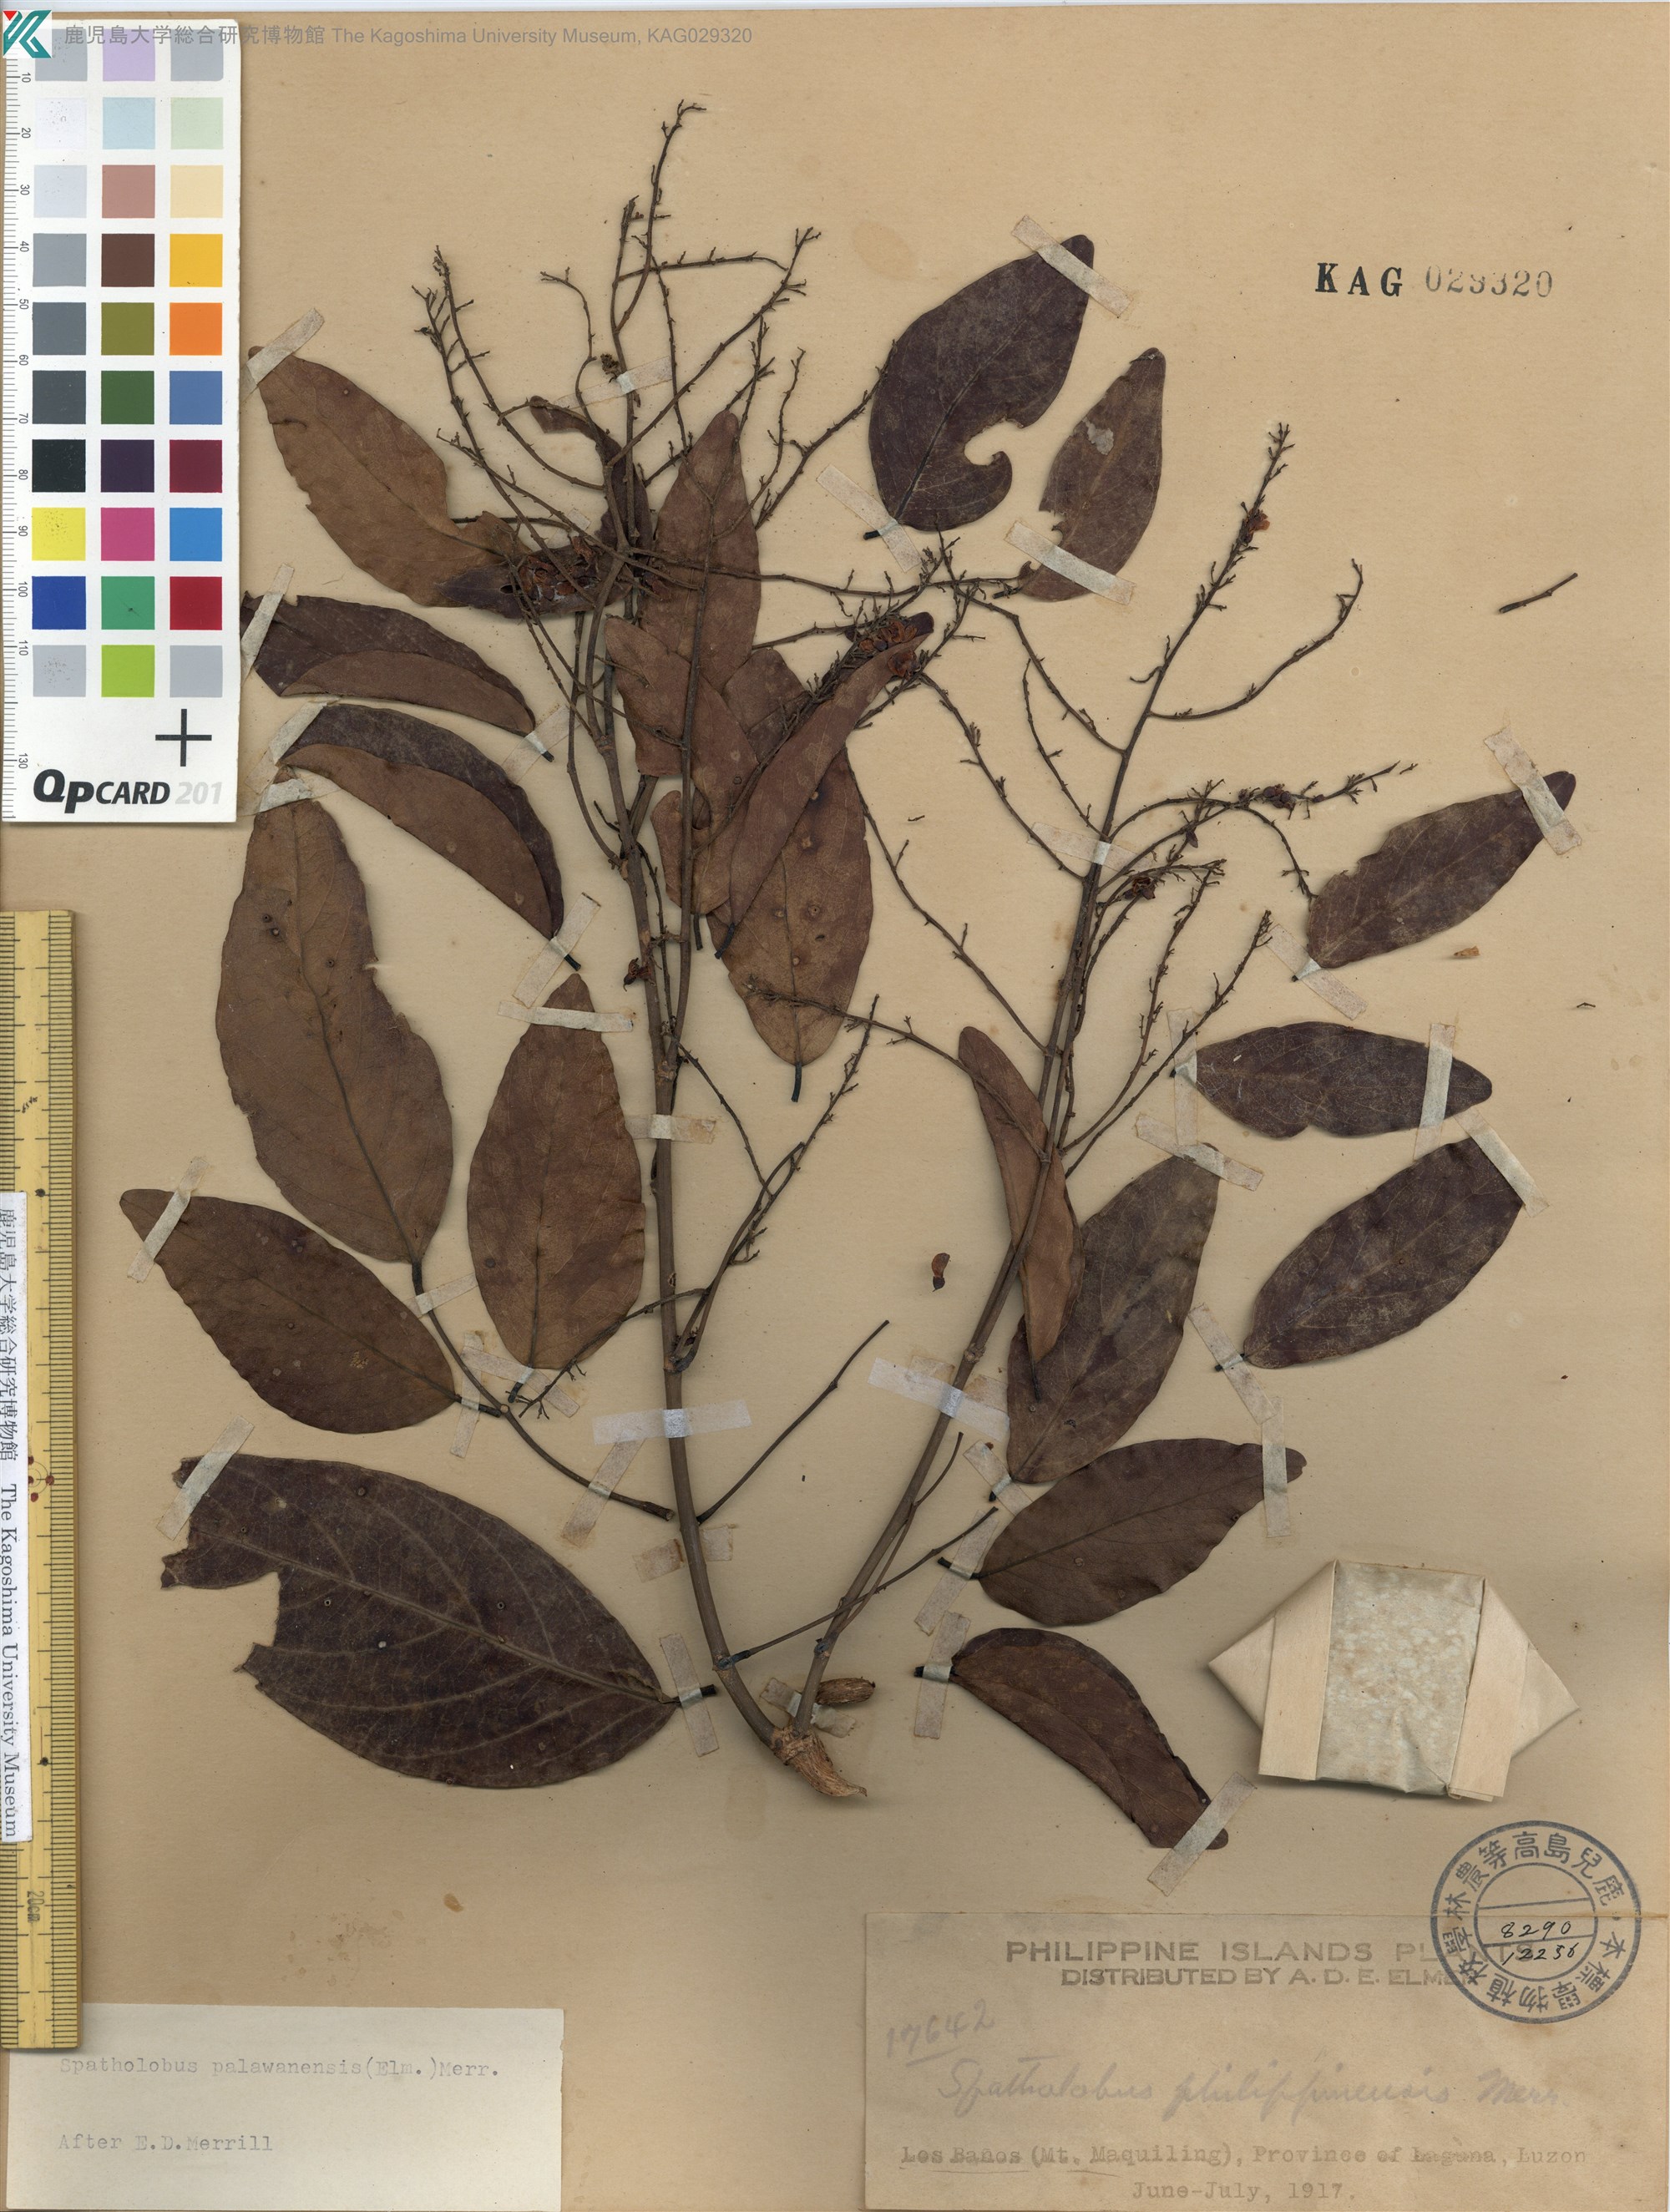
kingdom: Plantae
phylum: Tracheophyta
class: Magnoliopsida
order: Fabales
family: Fabaceae
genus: Spatholobus
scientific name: Spatholobus macropterus
